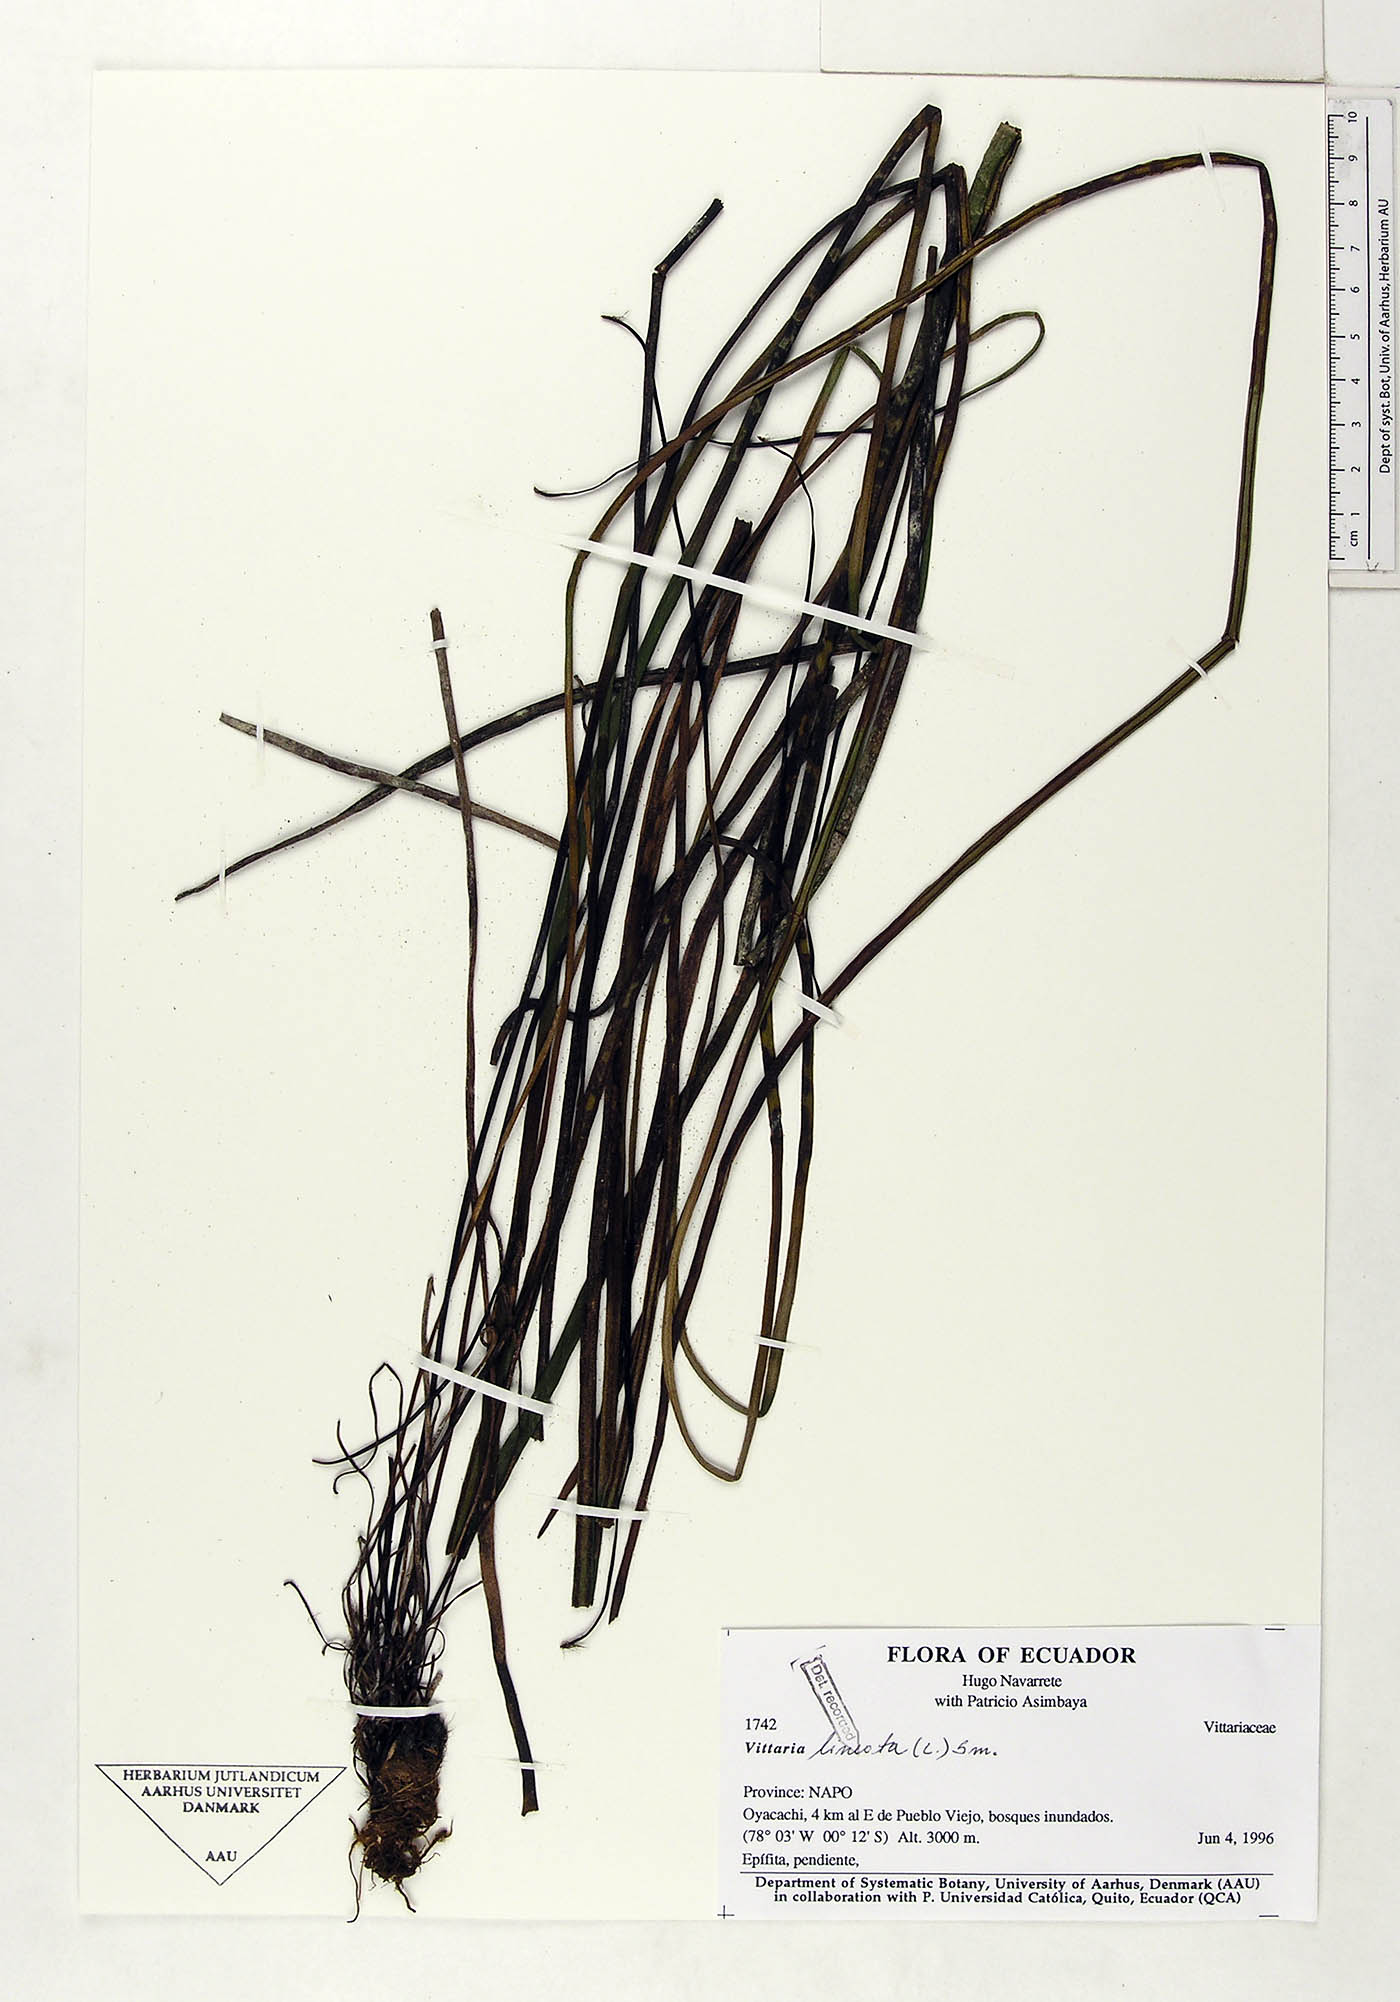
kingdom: Plantae
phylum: Tracheophyta
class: Polypodiopsida
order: Polypodiales
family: Pteridaceae
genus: Vittaria
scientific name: Vittaria lineata
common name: Shoestring fern
